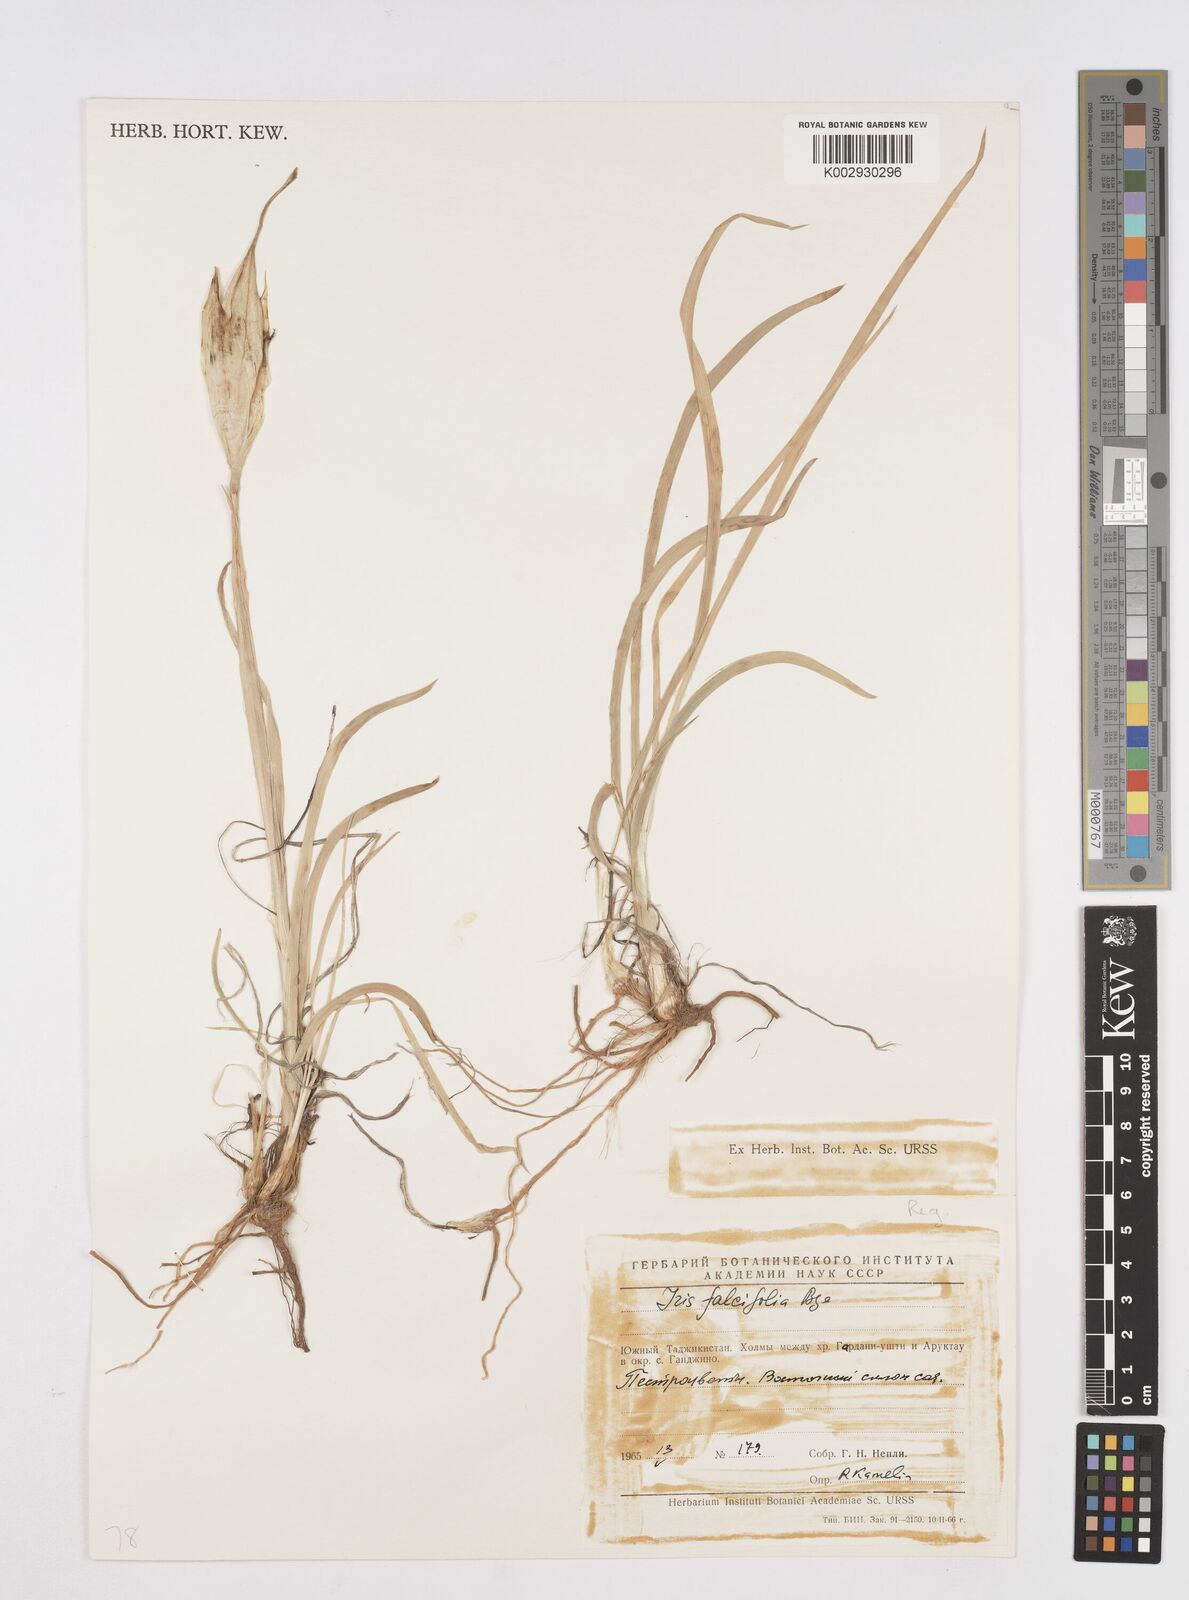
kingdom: Plantae
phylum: Tracheophyta
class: Liliopsida
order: Asparagales
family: Iridaceae
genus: Iris
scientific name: Iris longiscapa
